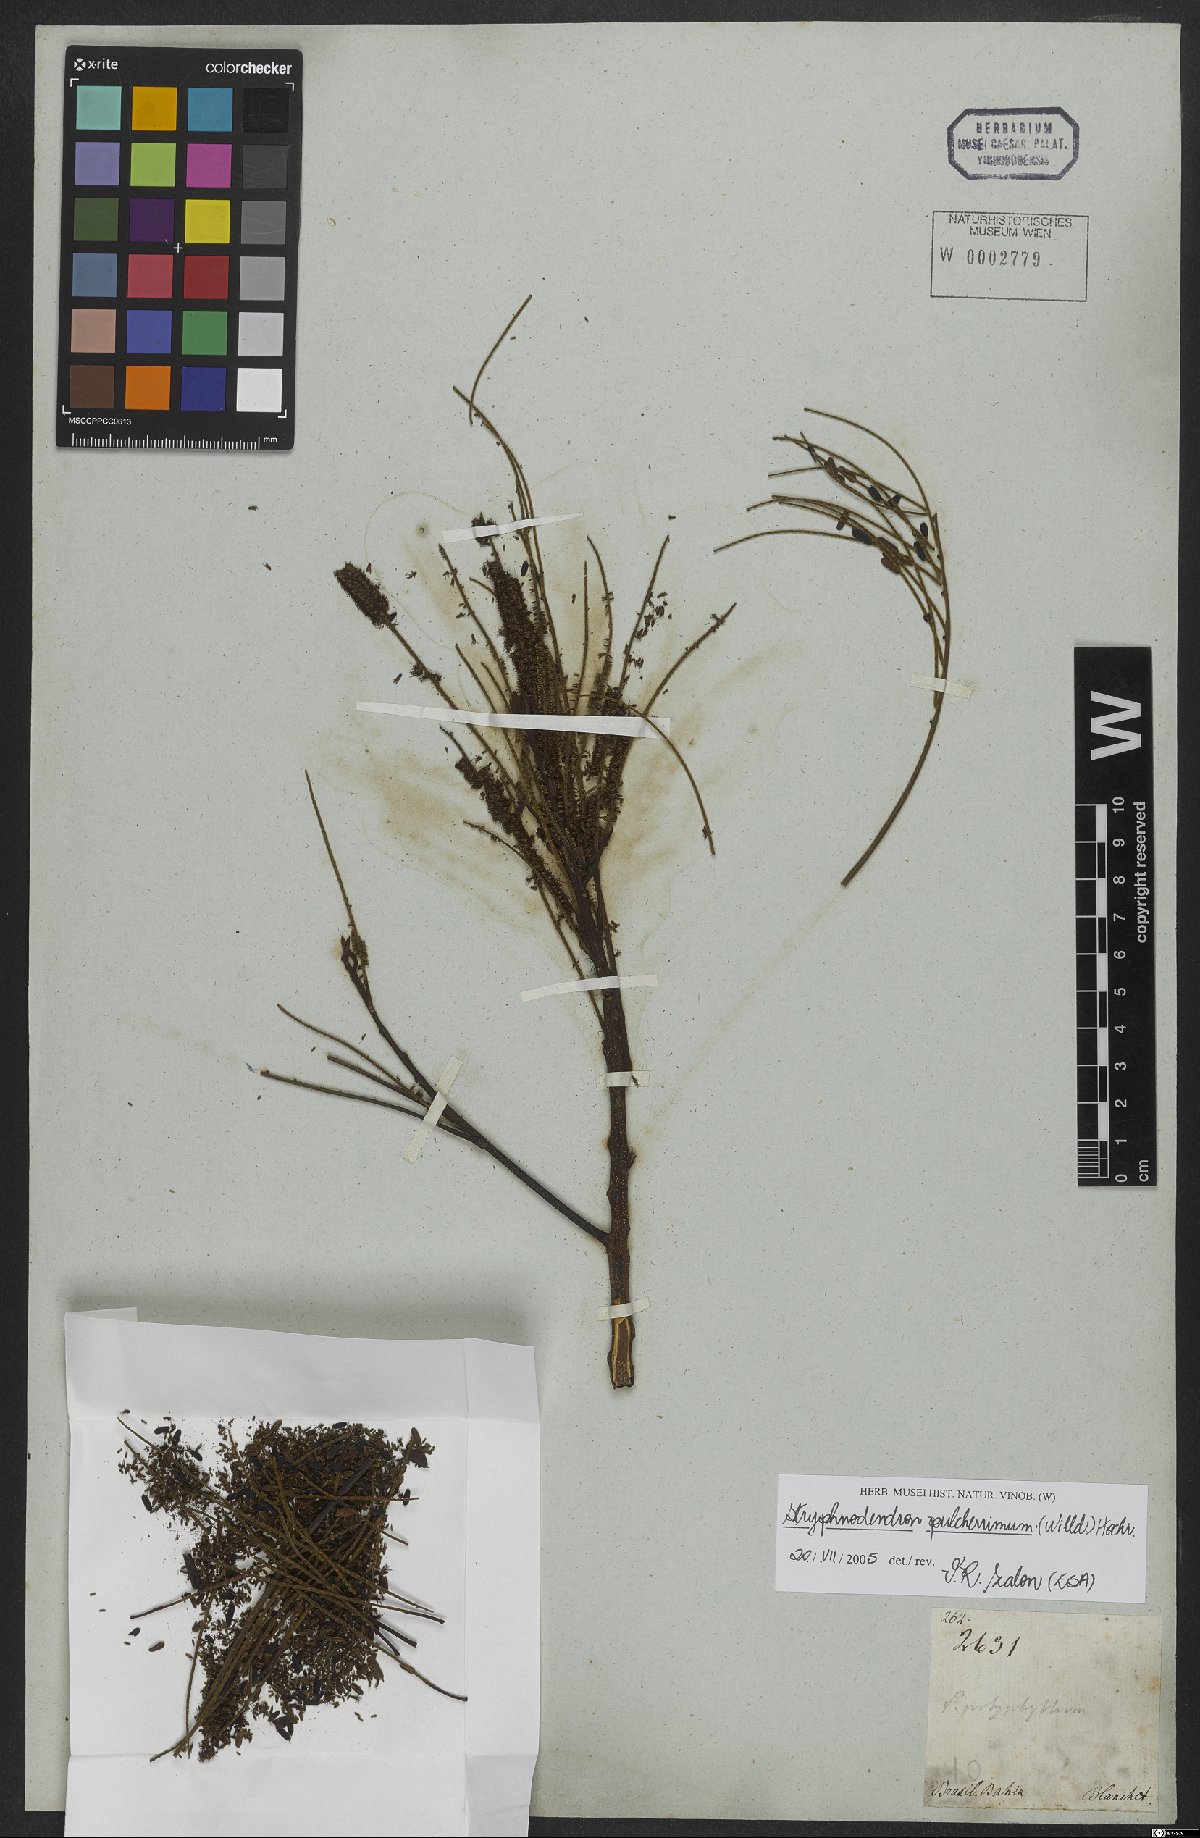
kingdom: Plantae
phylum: Tracheophyta
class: Magnoliopsida
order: Fabales
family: Fabaceae
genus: Stryphnodendron
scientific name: Stryphnodendron pulcherrimum
